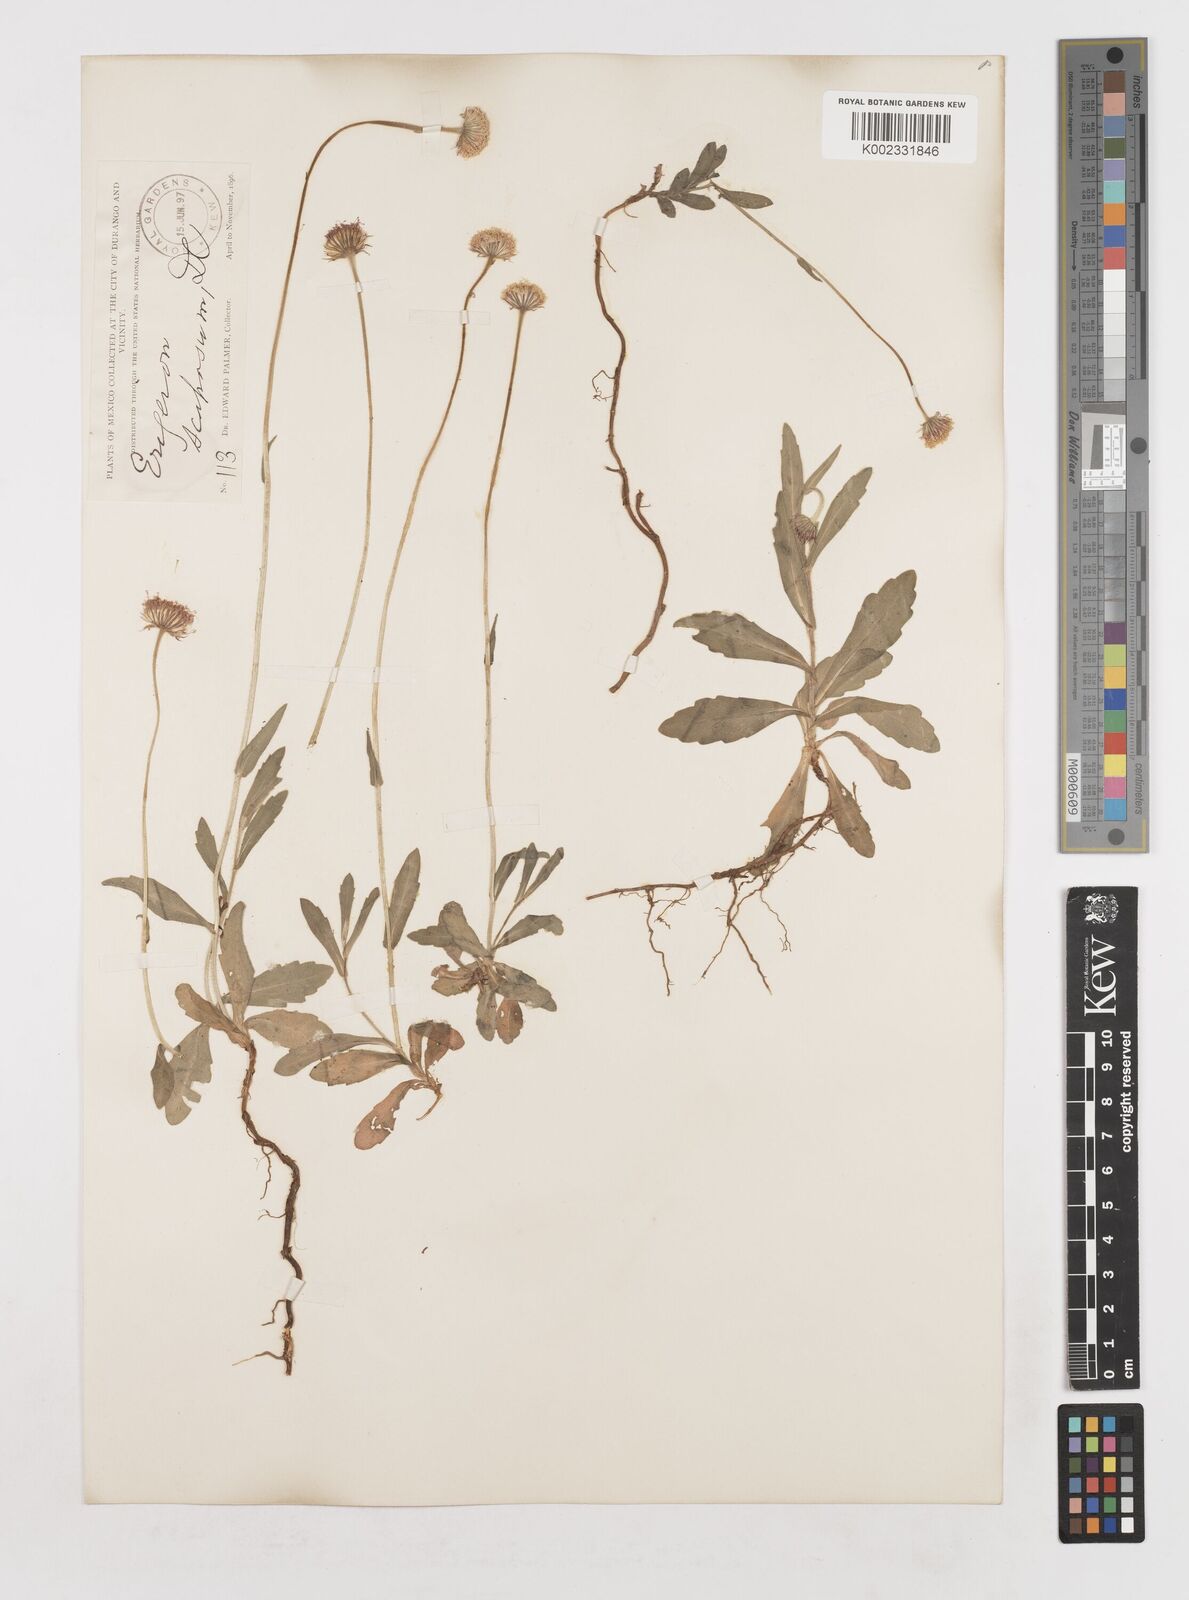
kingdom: Plantae
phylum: Tracheophyta
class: Magnoliopsida
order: Asterales
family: Asteraceae
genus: Erigeron
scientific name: Erigeron longipes
